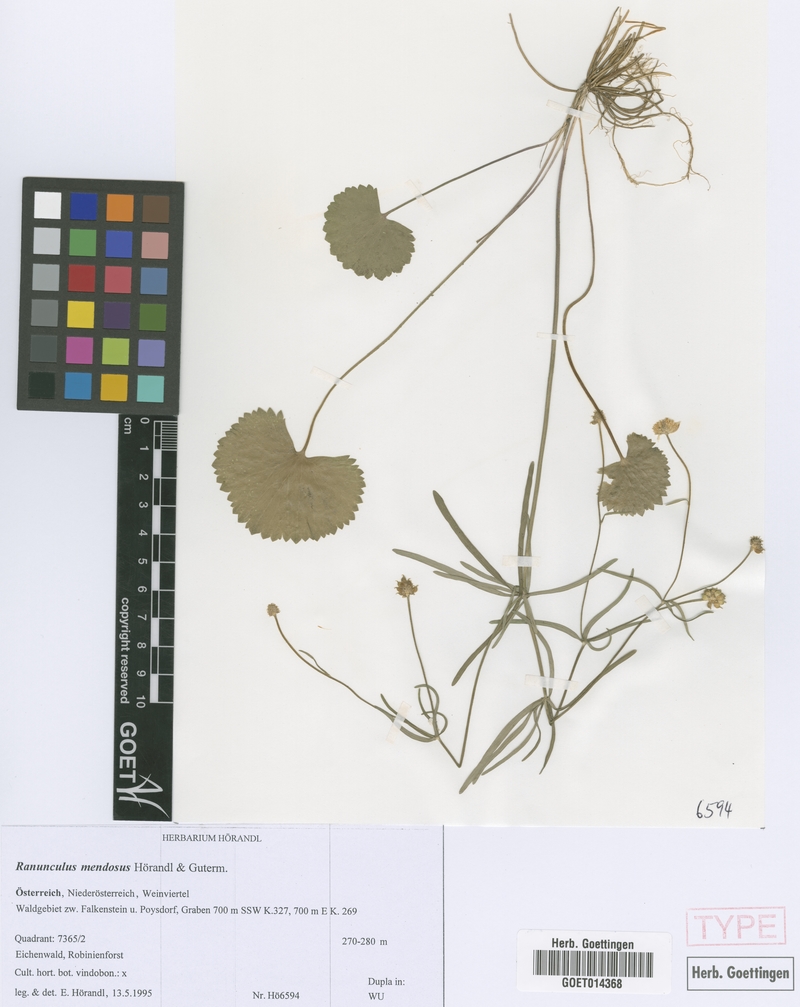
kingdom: Plantae
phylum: Tracheophyta
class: Magnoliopsida
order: Ranunculales
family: Ranunculaceae
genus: Ranunculus
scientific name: Ranunculus mendosus
